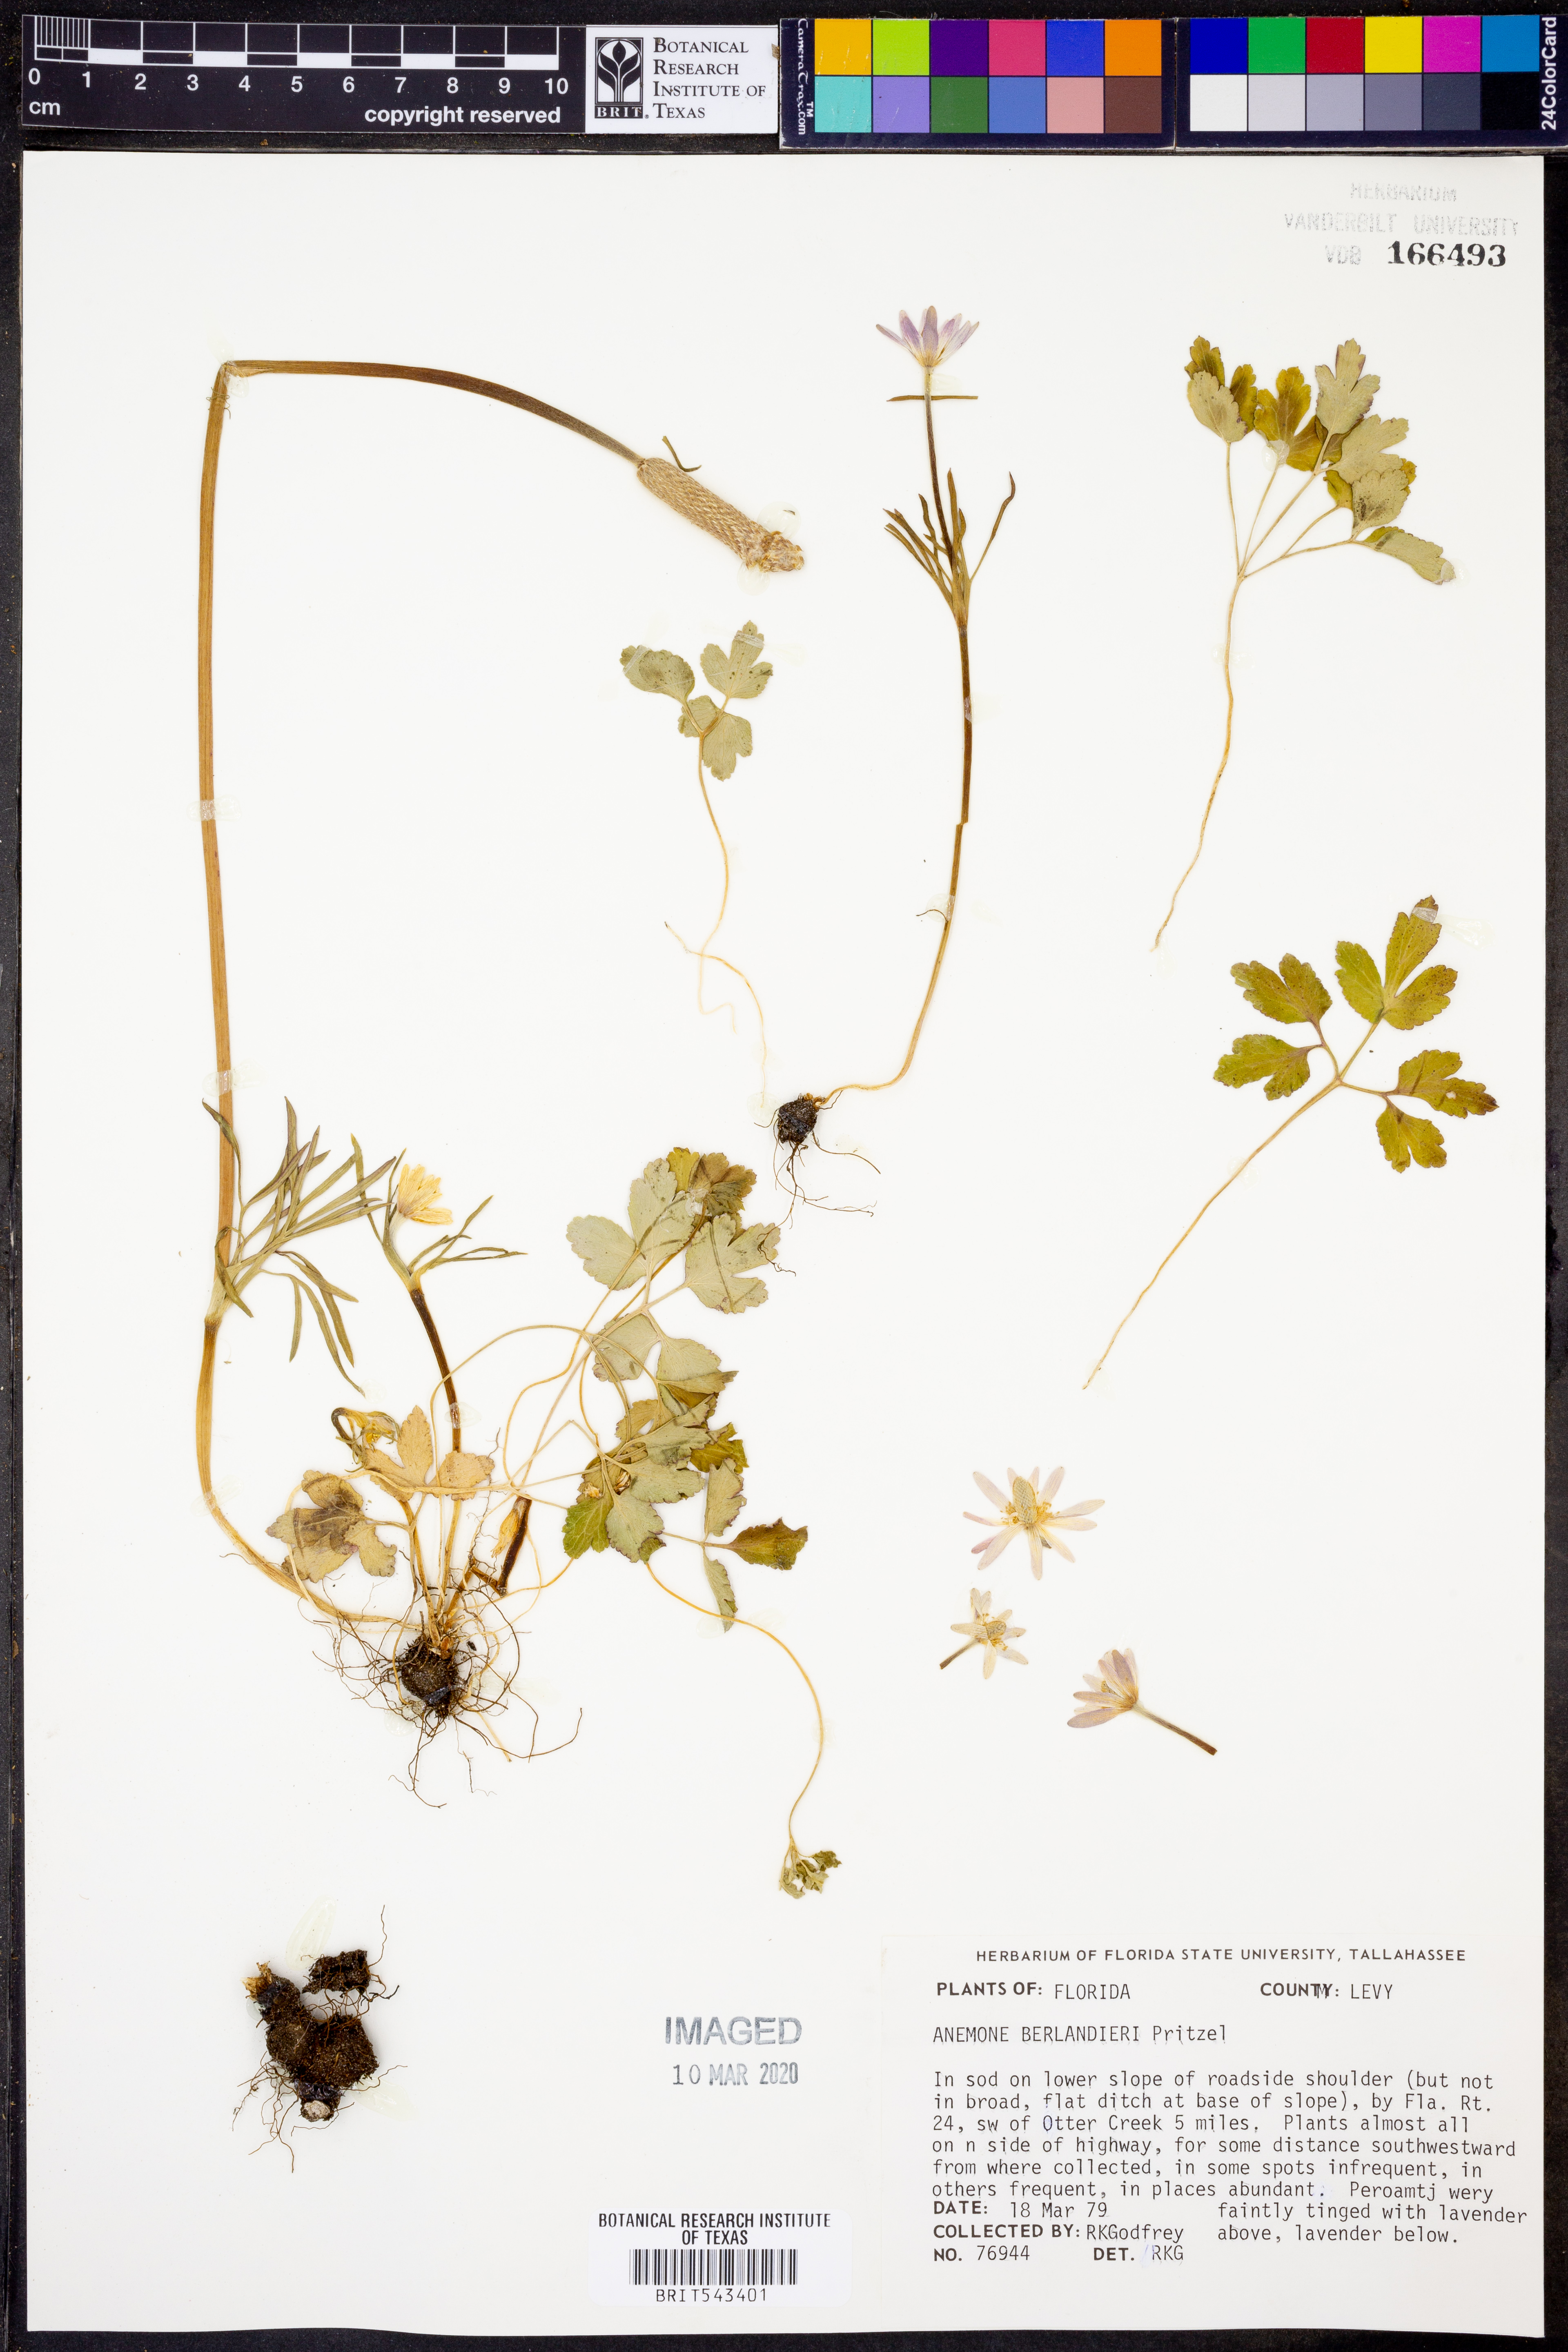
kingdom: Plantae
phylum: Tracheophyta
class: Magnoliopsida
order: Ranunculales
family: Ranunculaceae
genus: Anemone
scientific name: Anemone berlandieri
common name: Ten-petal anemone
